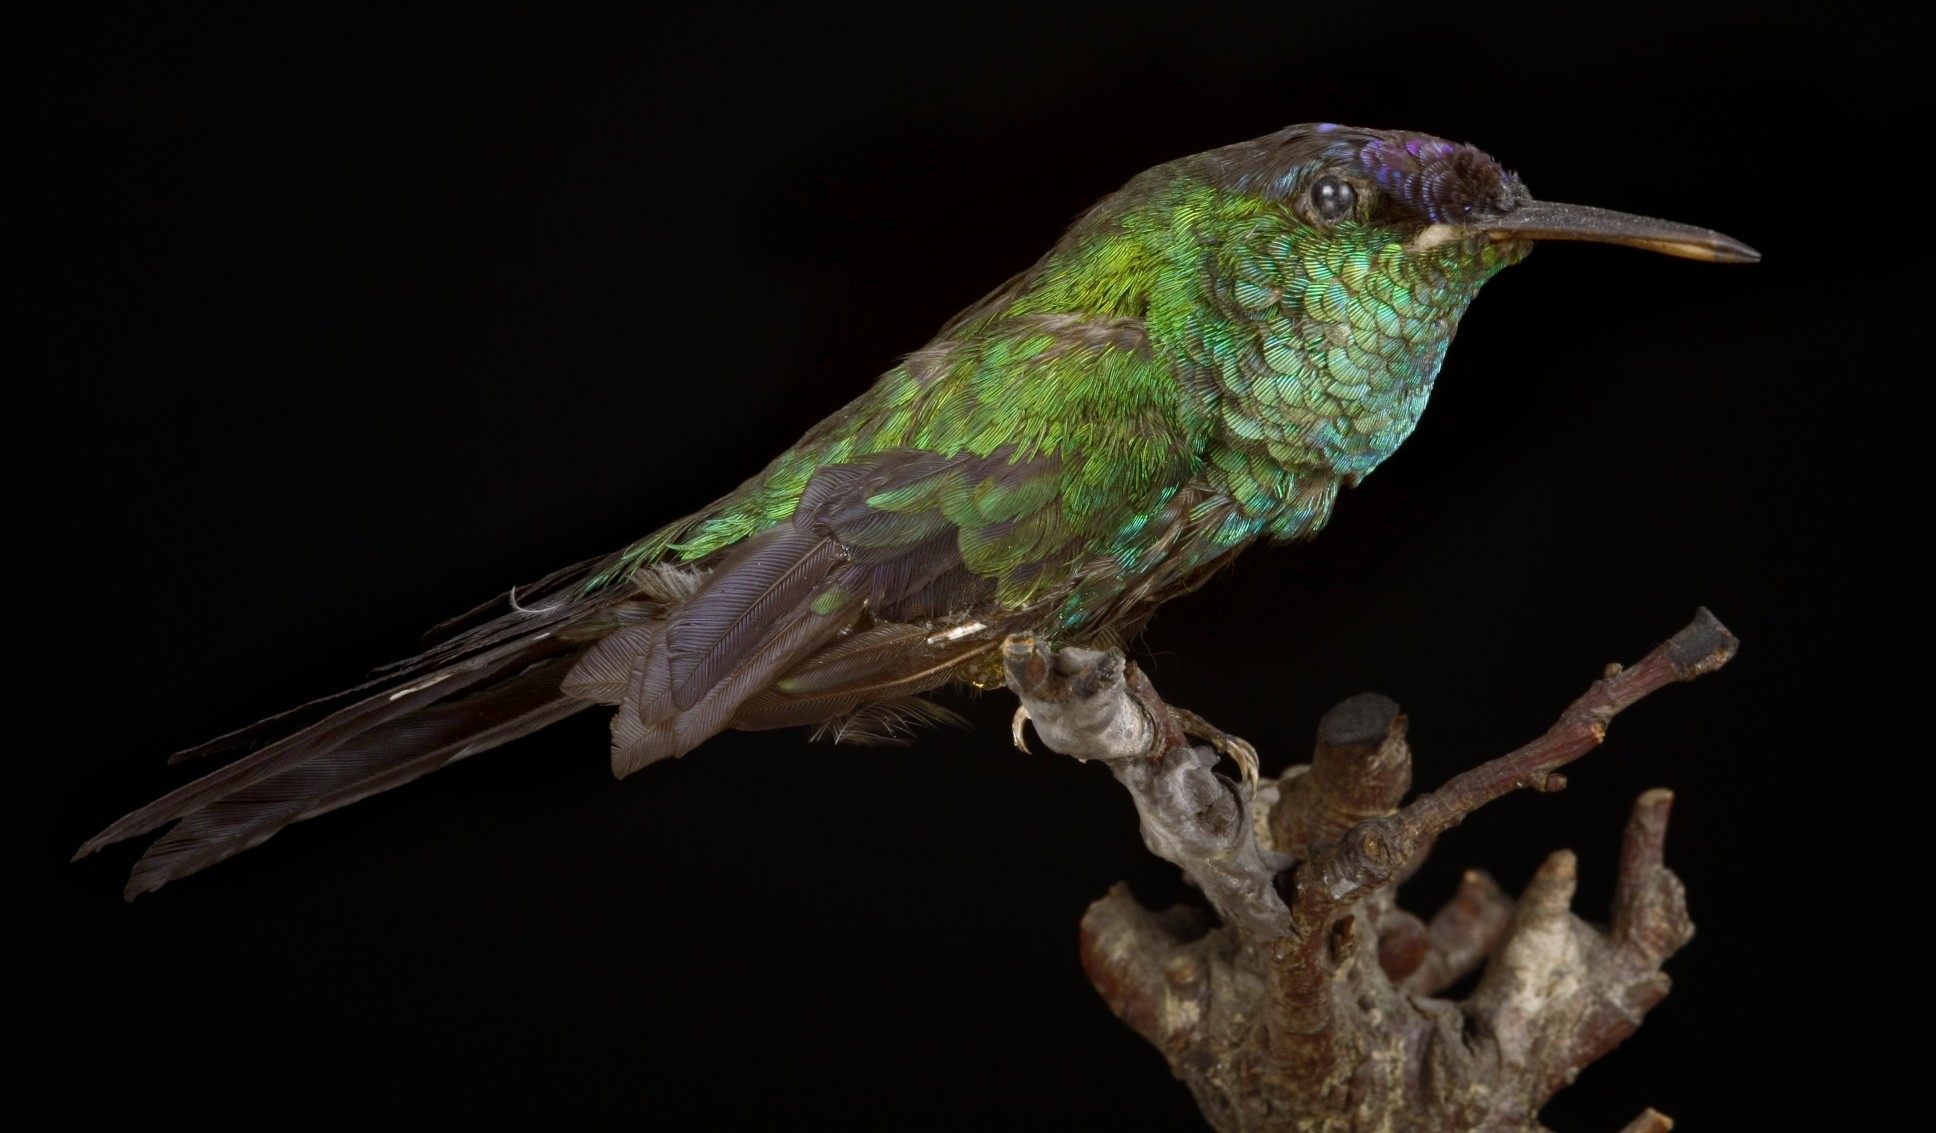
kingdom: Animalia
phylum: Chordata
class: Aves
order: Apodiformes
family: Trochilidae
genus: Thalurania
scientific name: Thalurania glaucopis
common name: Violet-capped woodnymph
